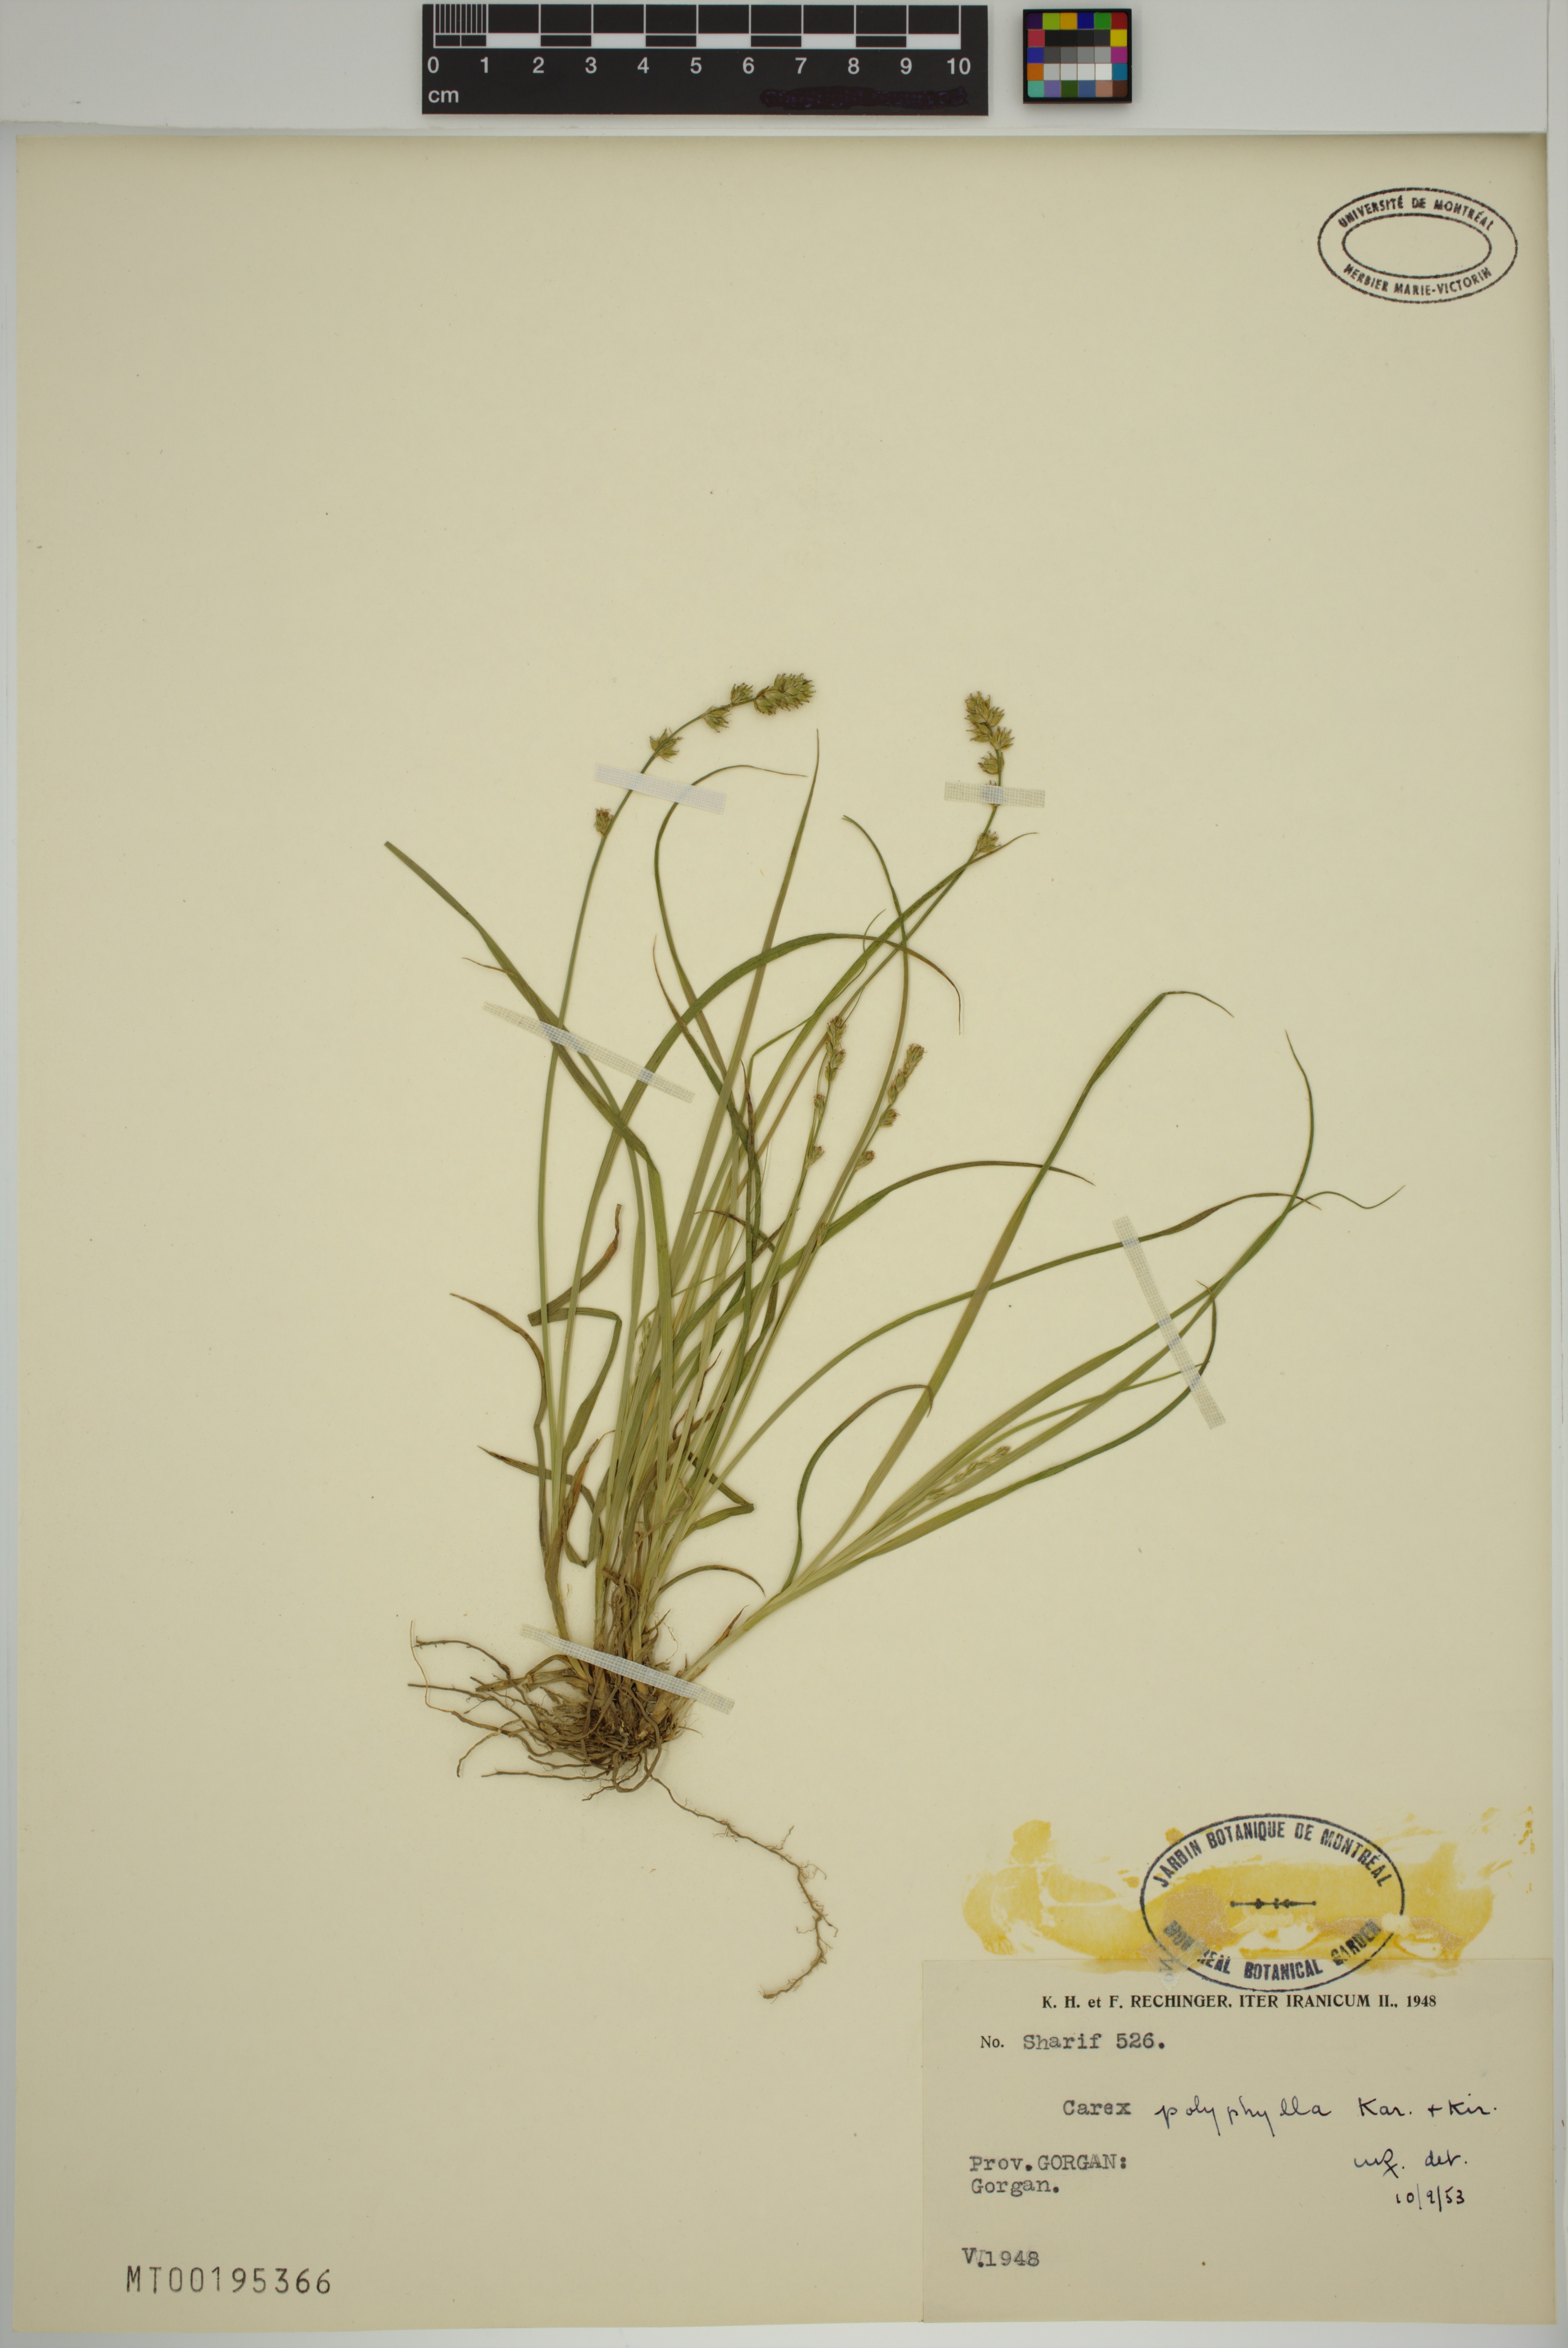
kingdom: Plantae
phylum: Tracheophyta
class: Liliopsida
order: Poales
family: Cyperaceae
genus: Carex
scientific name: Carex polyphylla
